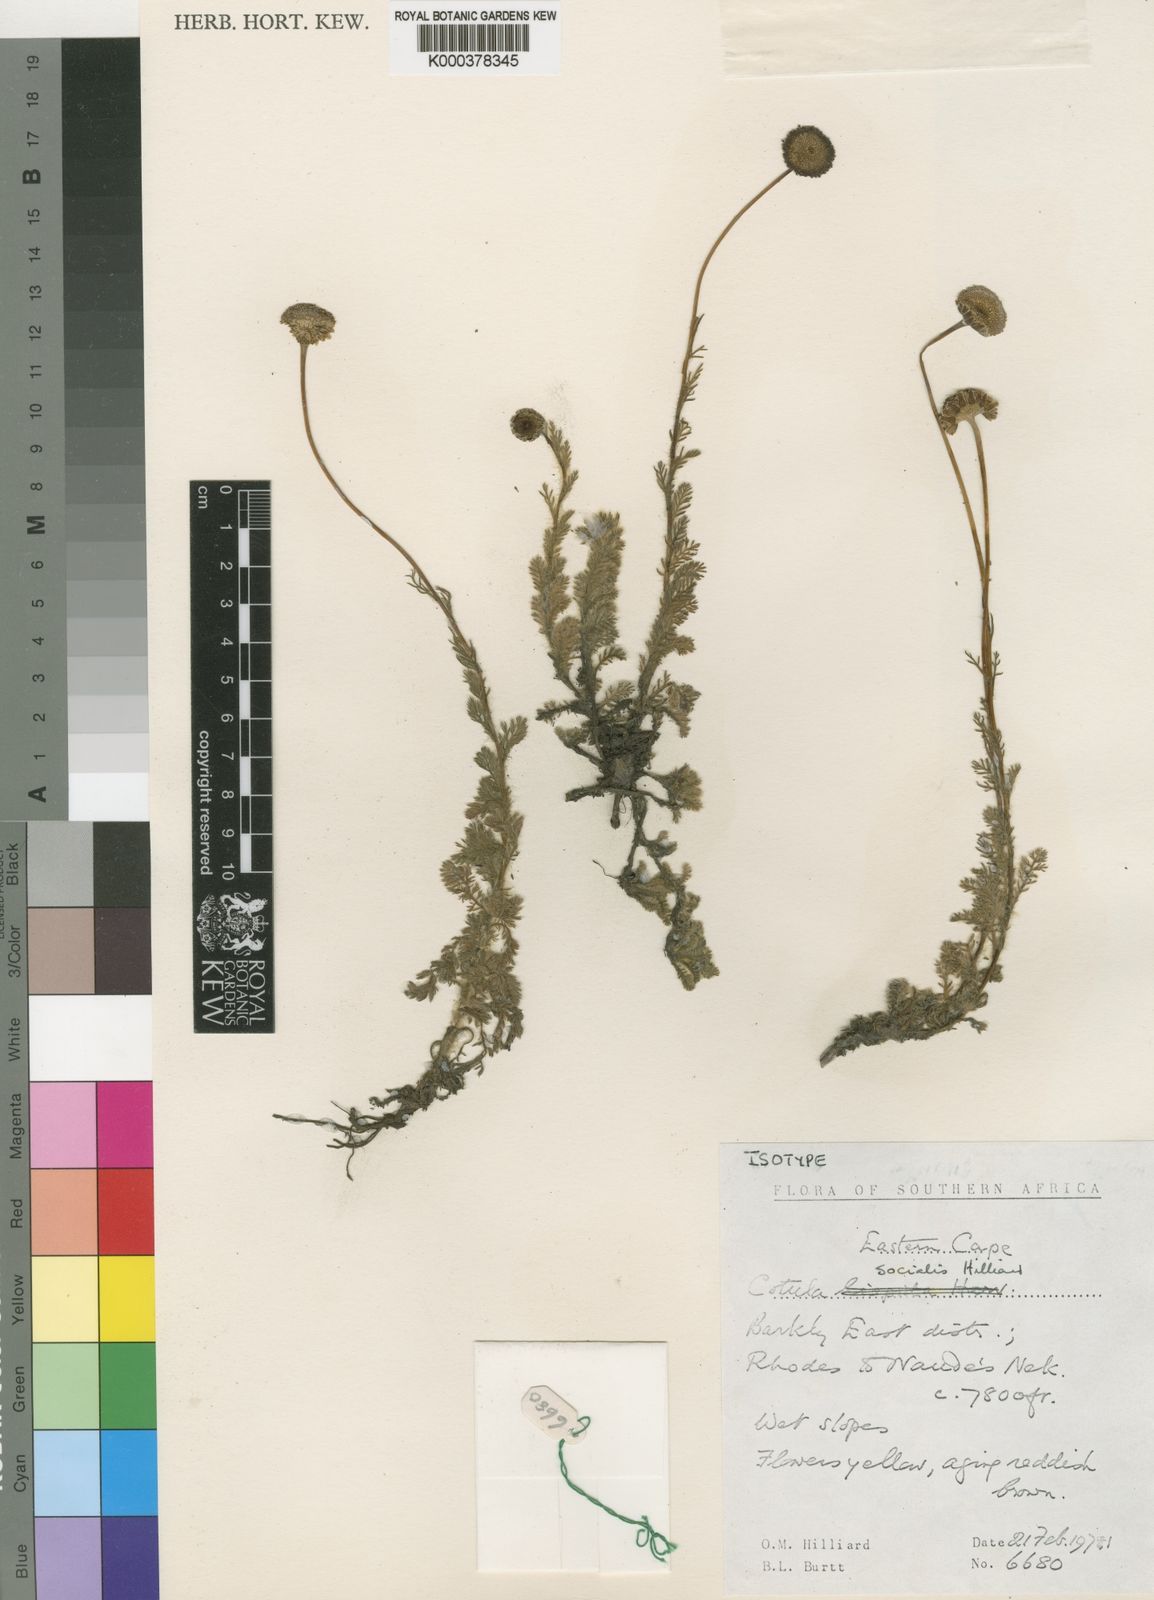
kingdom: Plantae
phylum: Tracheophyta
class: Magnoliopsida
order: Asterales
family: Asteraceae
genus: Cotula
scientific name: Cotula socialis
